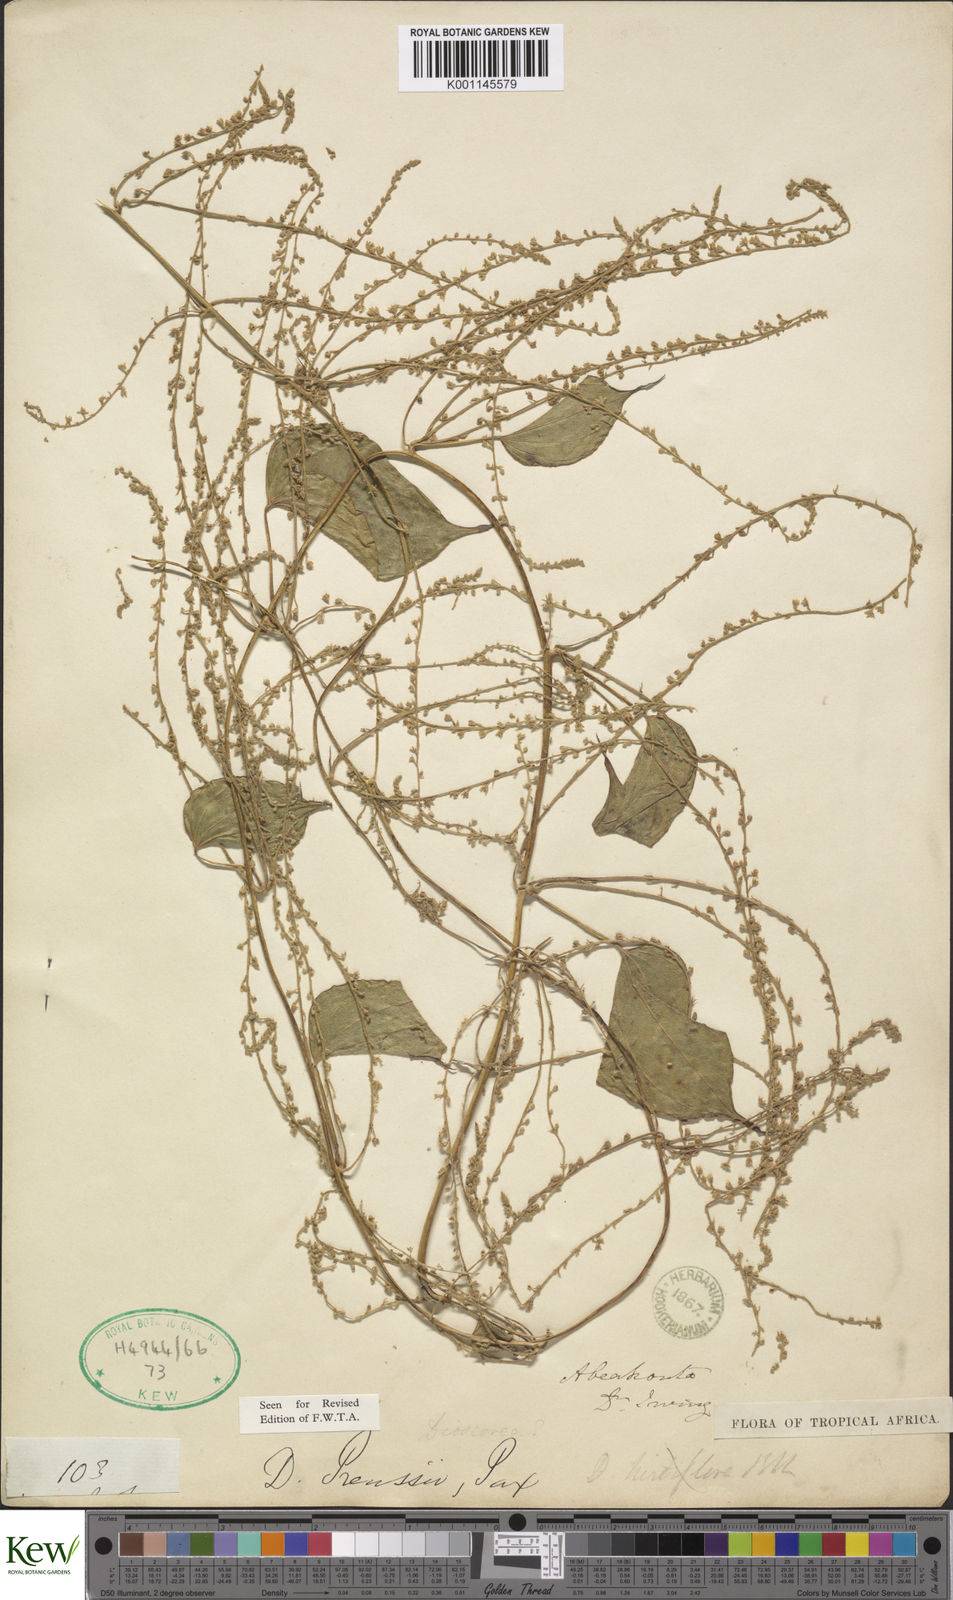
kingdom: Plantae
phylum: Tracheophyta
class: Liliopsida
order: Dioscoreales
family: Dioscoreaceae
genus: Dioscorea
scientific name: Dioscorea preussii
